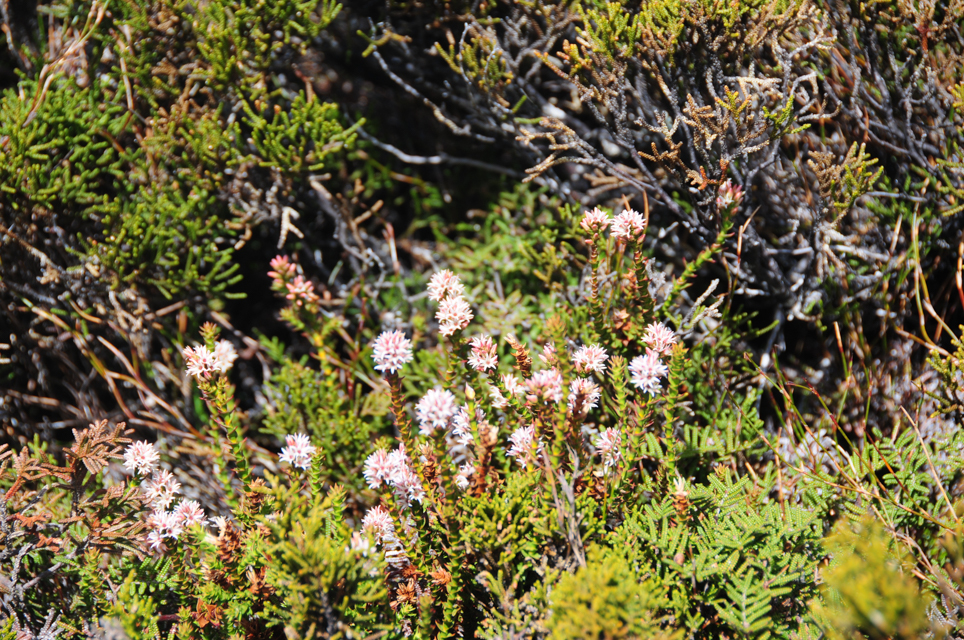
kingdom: Plantae
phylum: Tracheophyta
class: Magnoliopsida
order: Ericales
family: Ericaceae
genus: Sprengelia
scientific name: Sprengelia incarnata
